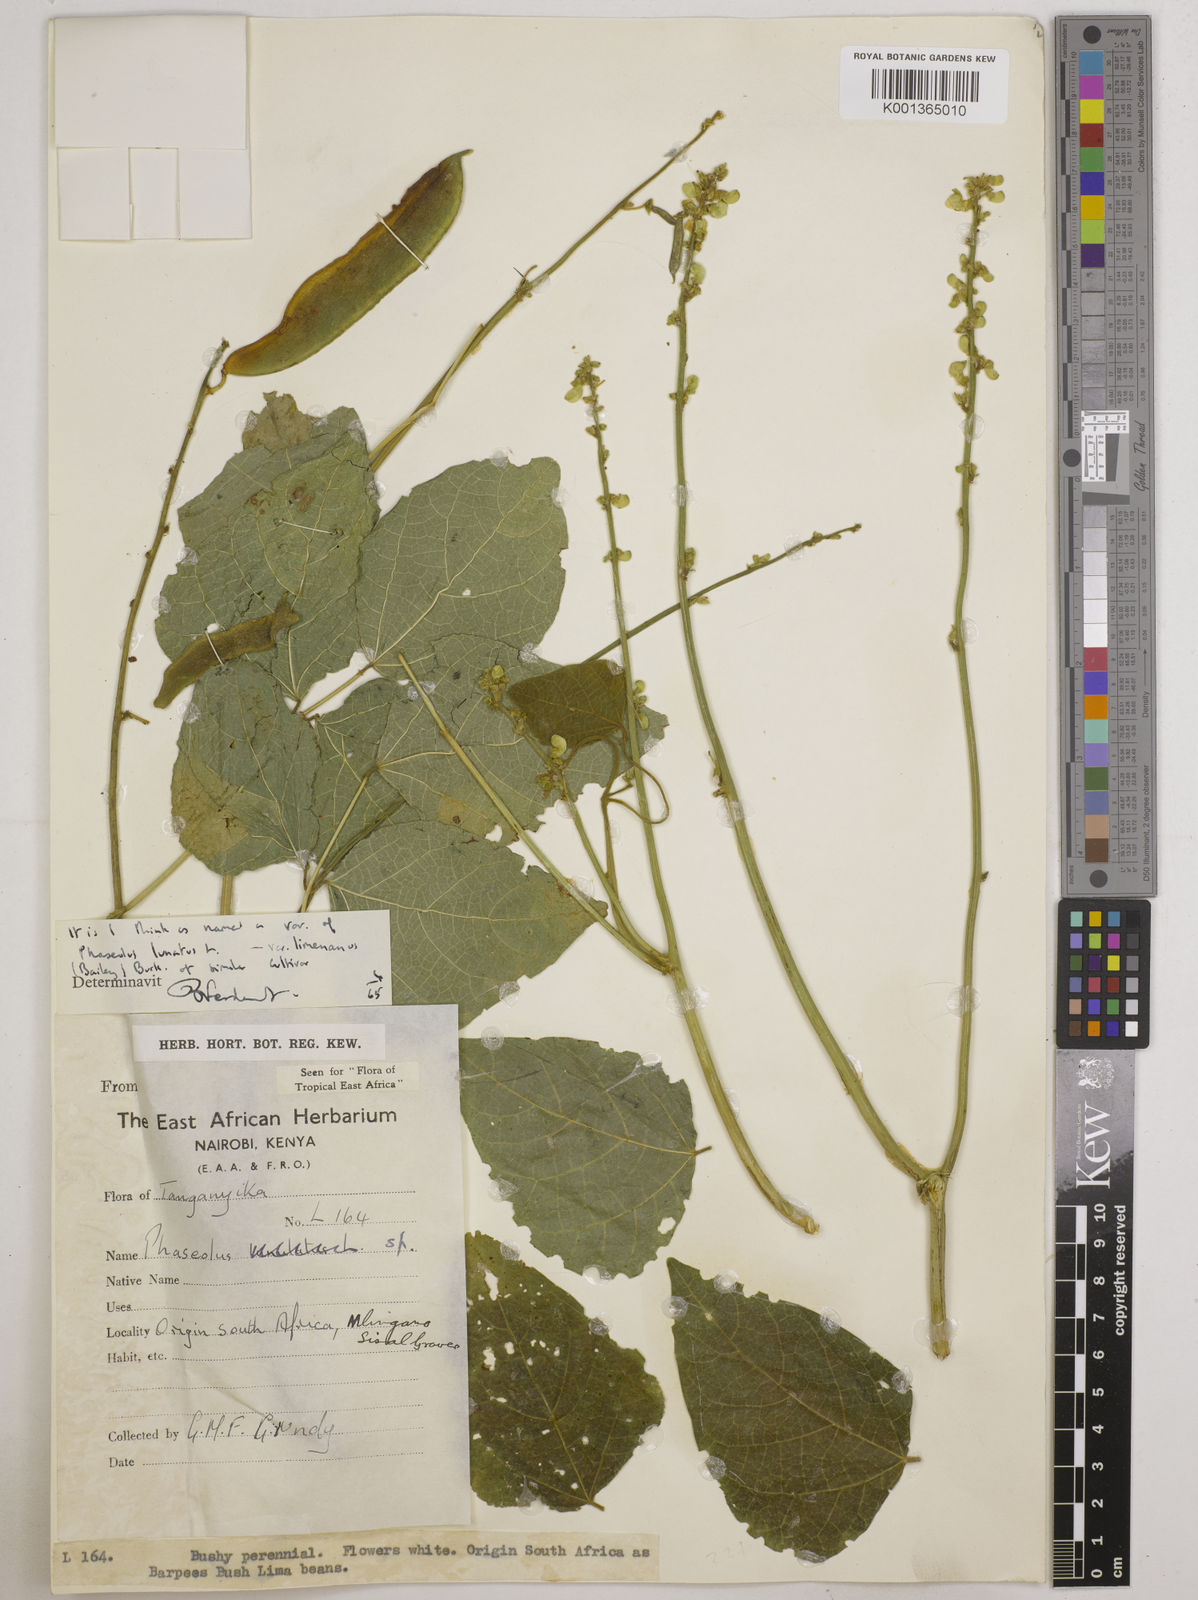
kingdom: Plantae
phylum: Tracheophyta
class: Magnoliopsida
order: Fabales
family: Fabaceae
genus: Phaseolus
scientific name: Phaseolus lunatus
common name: Sieva bean
